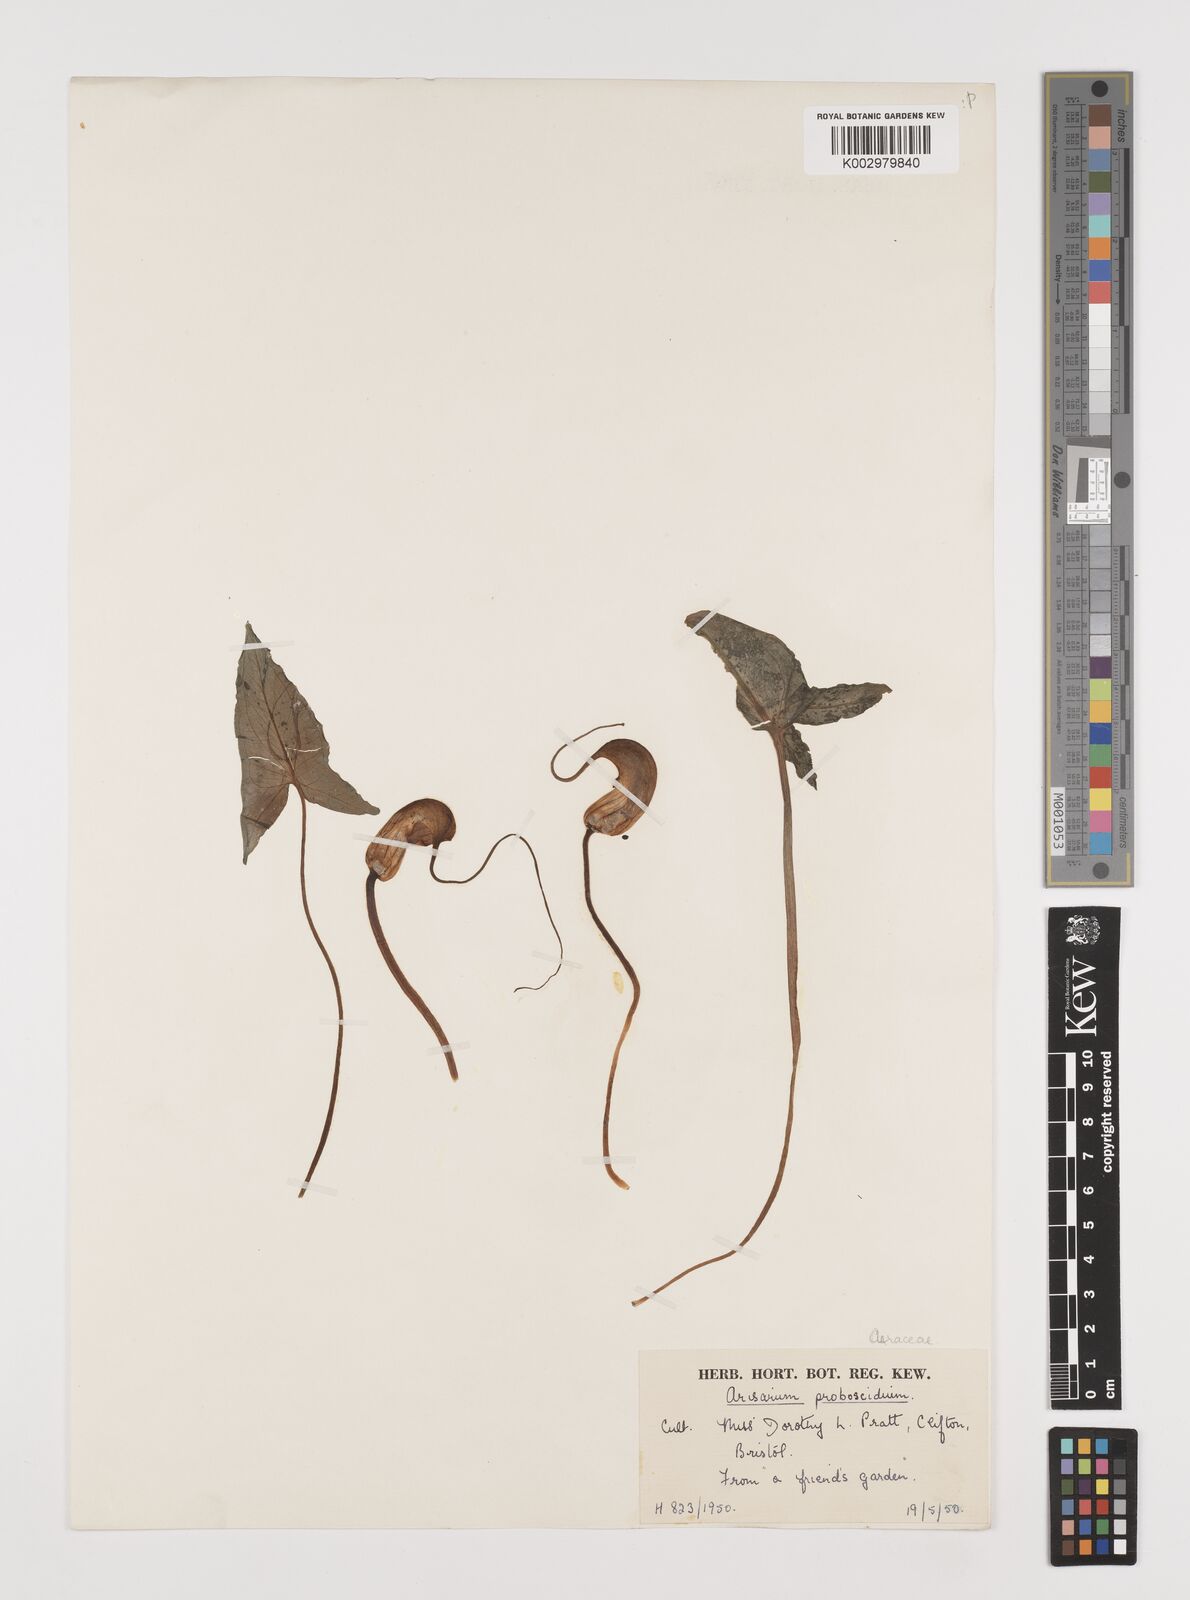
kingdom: Plantae
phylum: Tracheophyta
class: Liliopsida
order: Alismatales
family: Araceae
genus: Arisarum
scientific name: Arisarum proboscideum
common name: Mousetailplant
